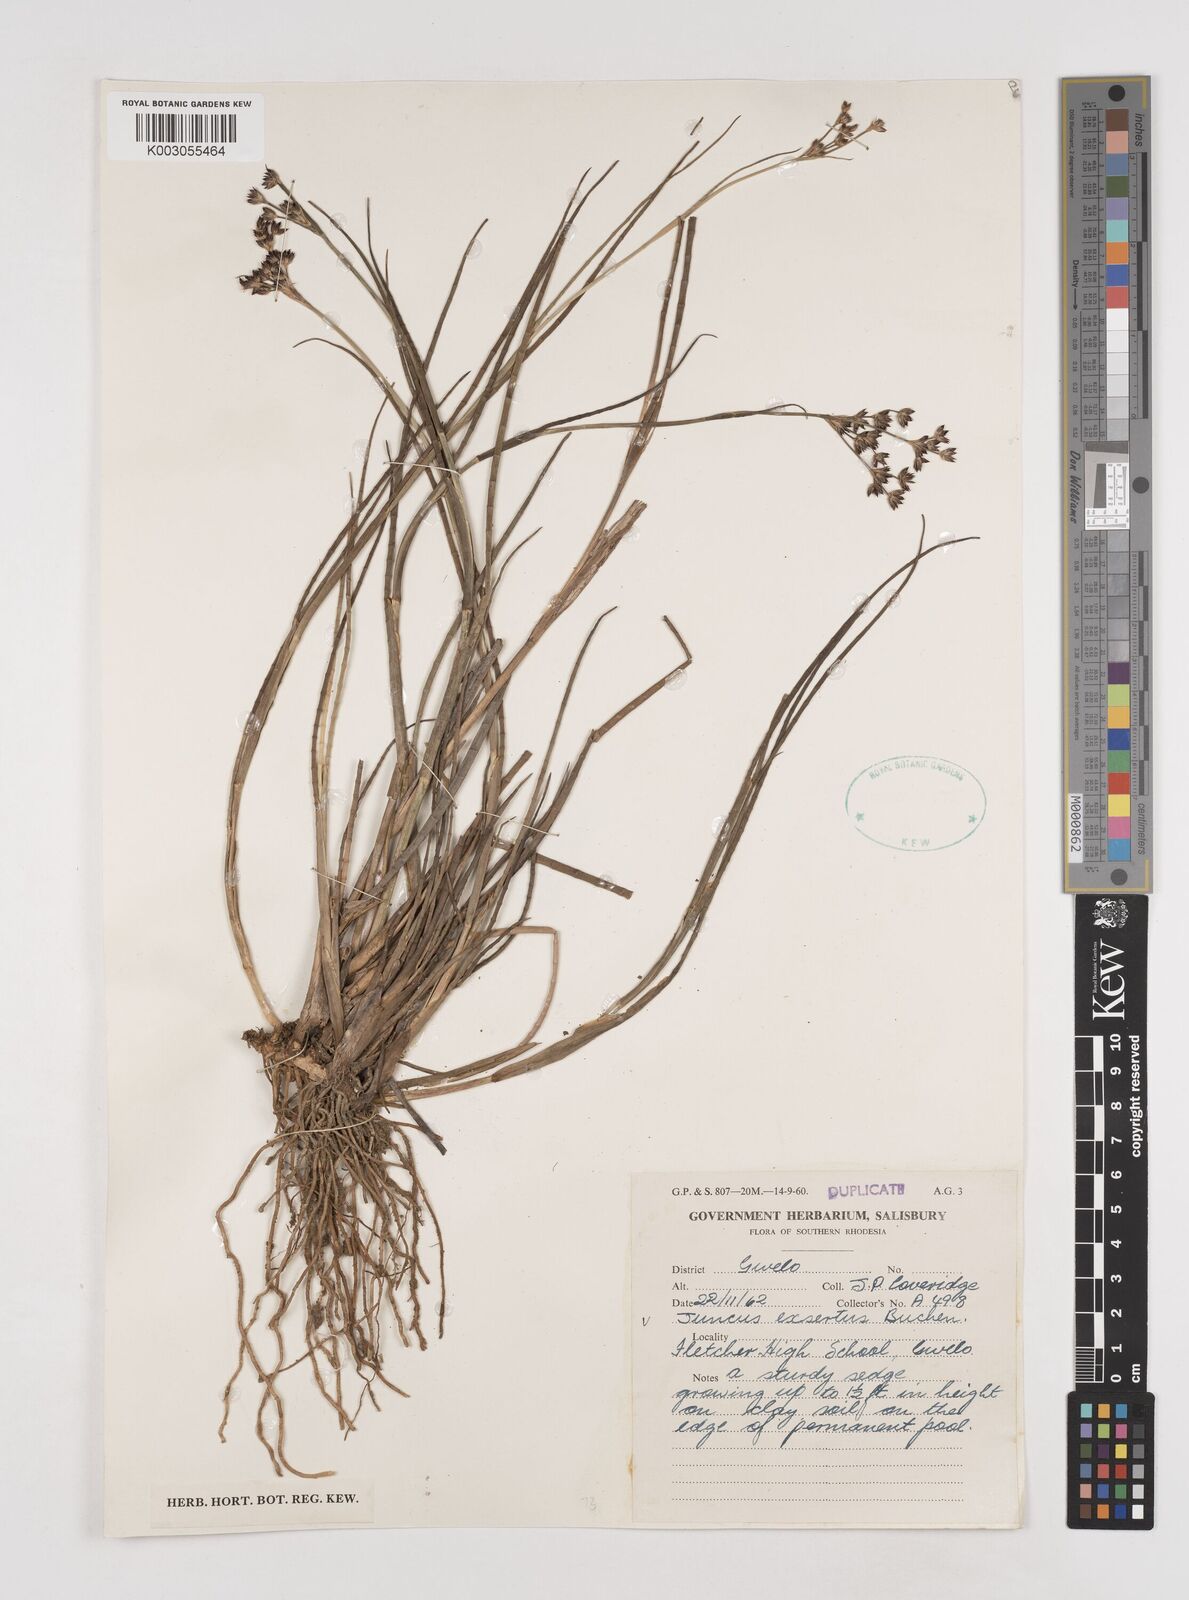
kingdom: Plantae
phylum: Tracheophyta
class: Liliopsida
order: Poales
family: Juncaceae
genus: Juncus
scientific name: Juncus exsertus
